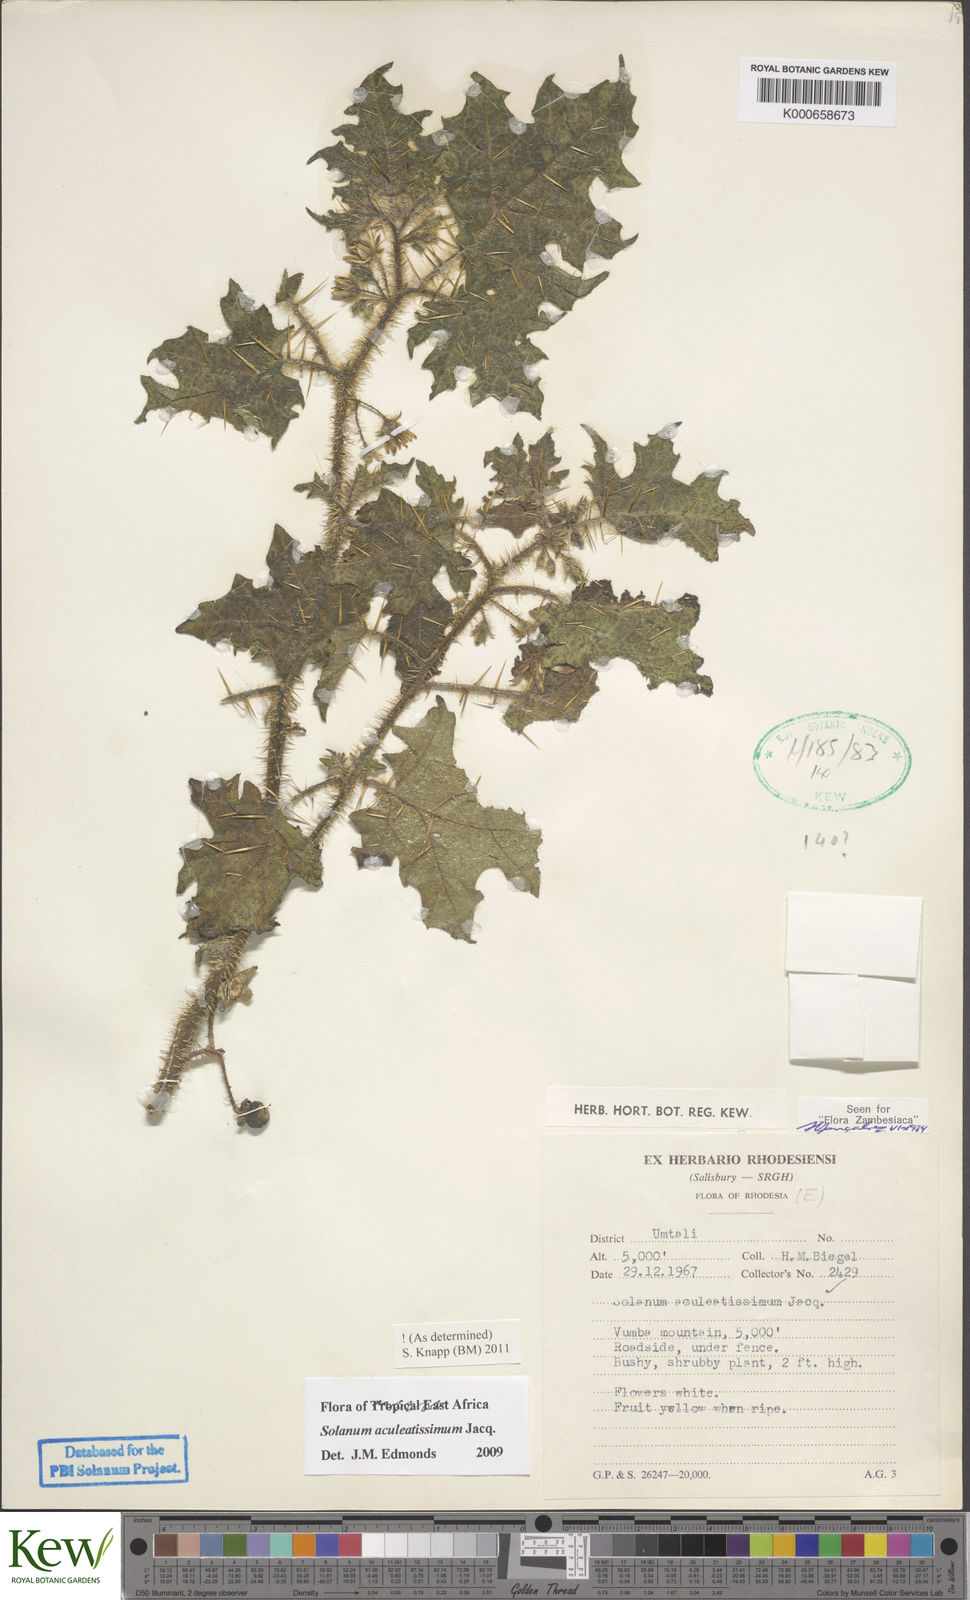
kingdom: Plantae
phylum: Tracheophyta
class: Magnoliopsida
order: Solanales
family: Solanaceae
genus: Solanum
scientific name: Solanum aculeatissimum
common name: Dutch eggplant
